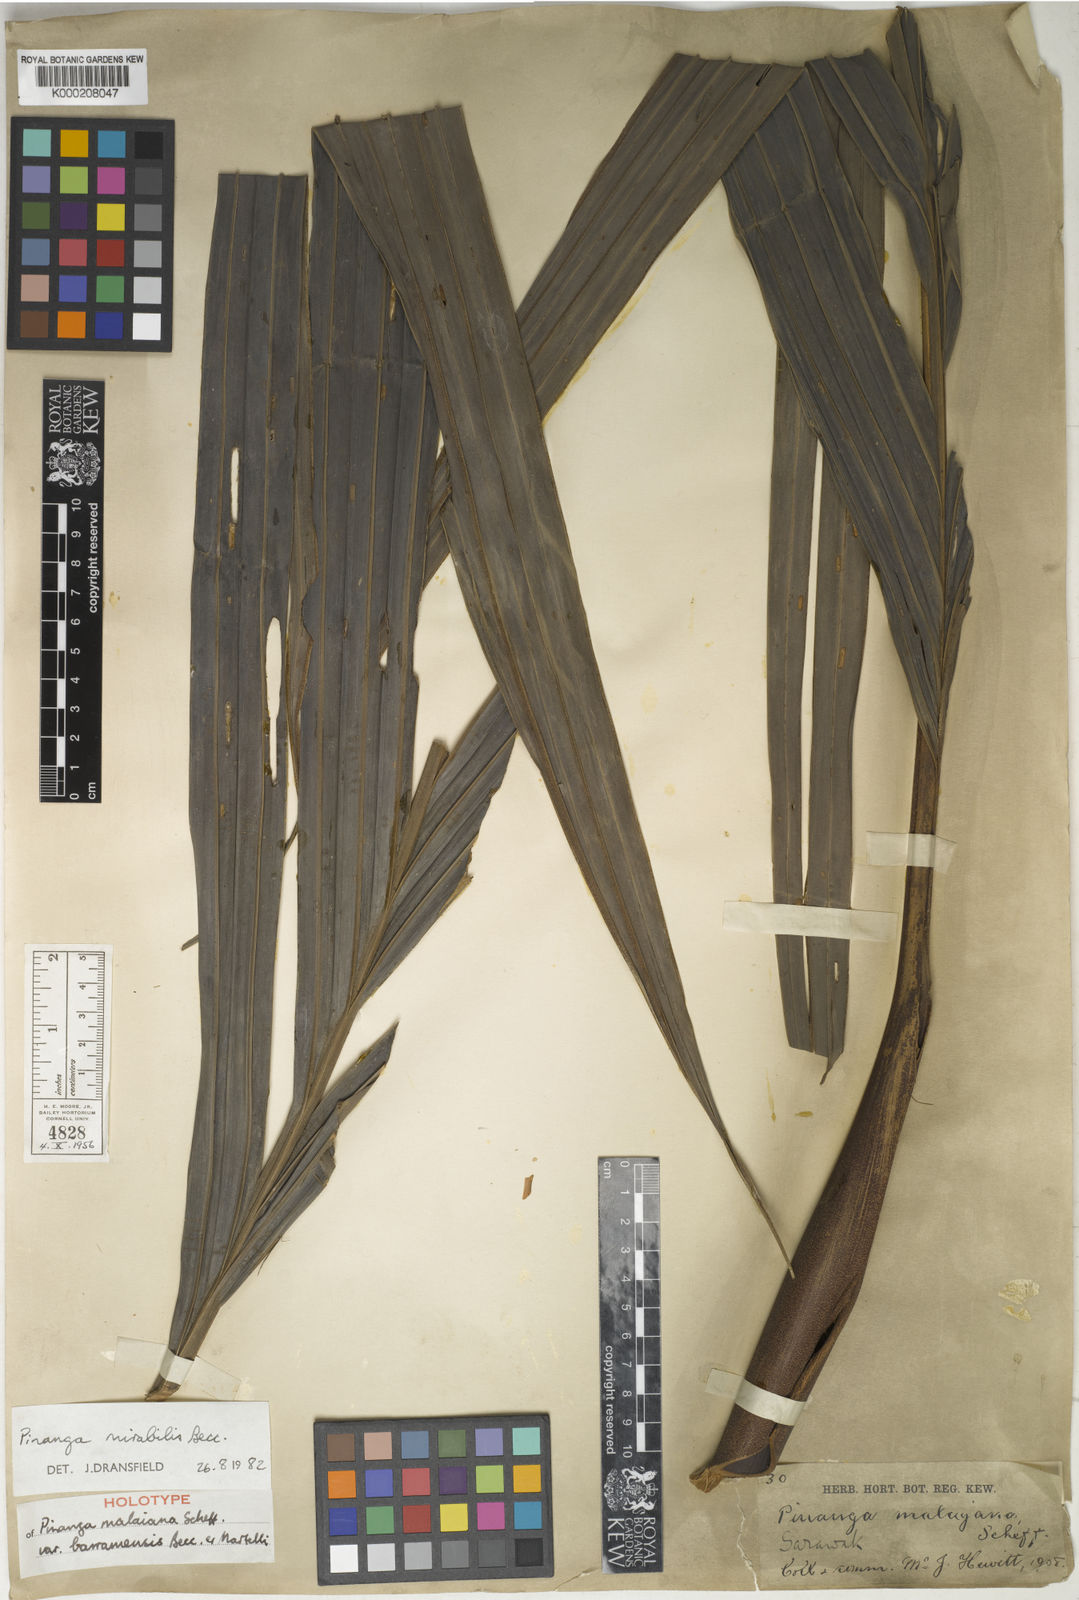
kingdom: Plantae
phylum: Tracheophyta
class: Liliopsida
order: Arecales
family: Arecaceae
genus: Pinanga
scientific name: Pinanga mirabilis
